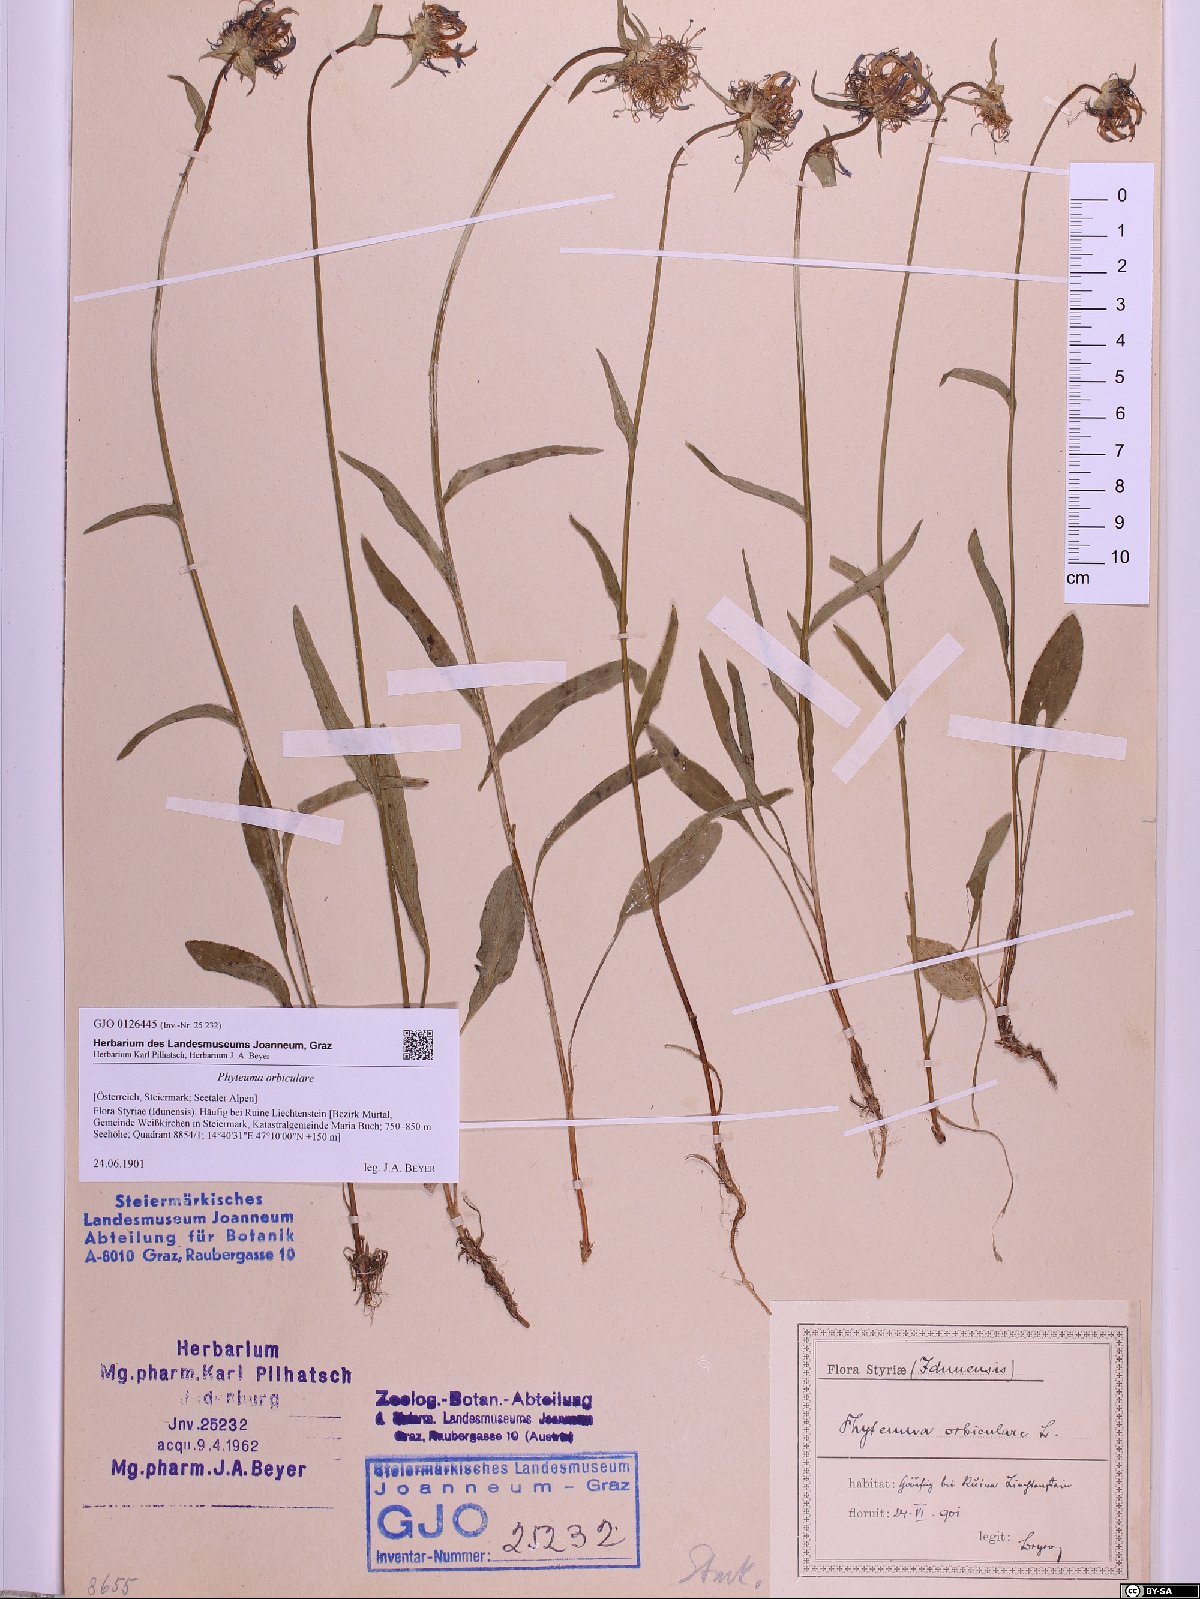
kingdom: Plantae
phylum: Tracheophyta
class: Magnoliopsida
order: Asterales
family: Campanulaceae
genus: Phyteuma
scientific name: Phyteuma orbiculare
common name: Round-headed rampion
